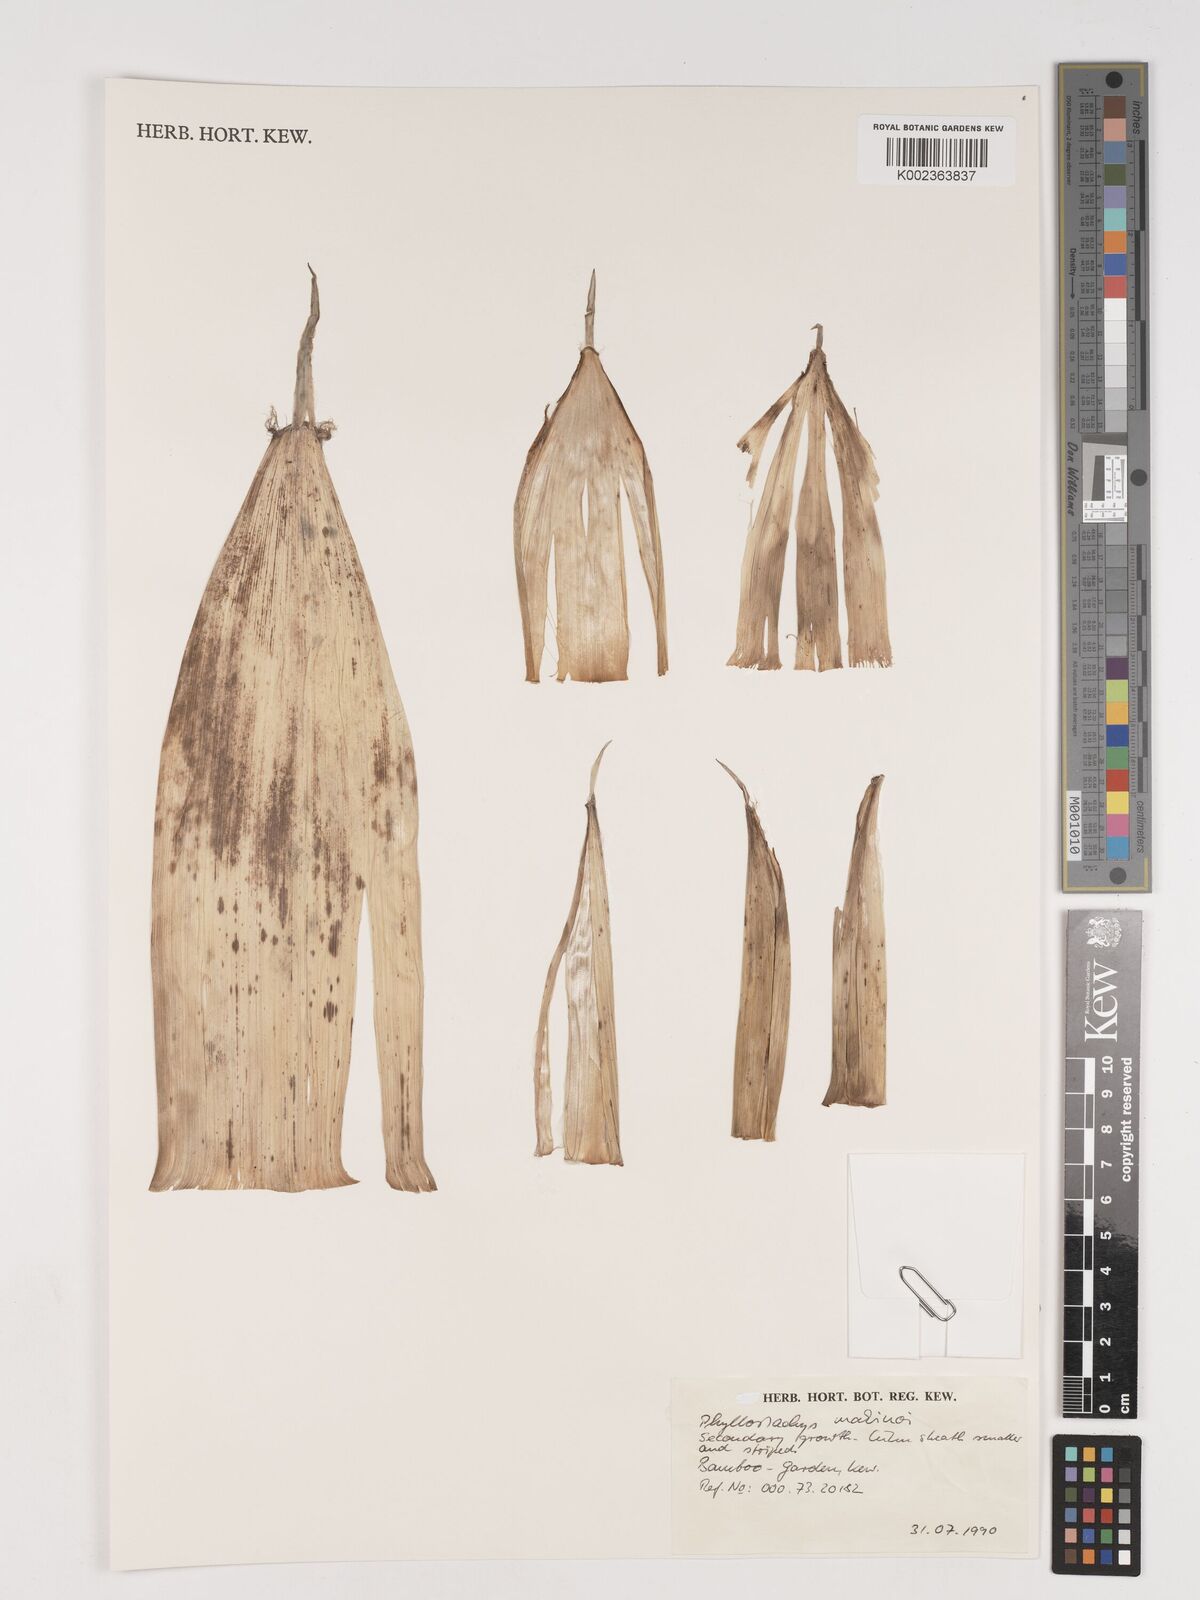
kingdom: Plantae
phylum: Tracheophyta
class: Liliopsida
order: Poales
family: Poaceae
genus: Phyllostachys
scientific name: Phyllostachys dulcis
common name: Sweetshoot bamboo
